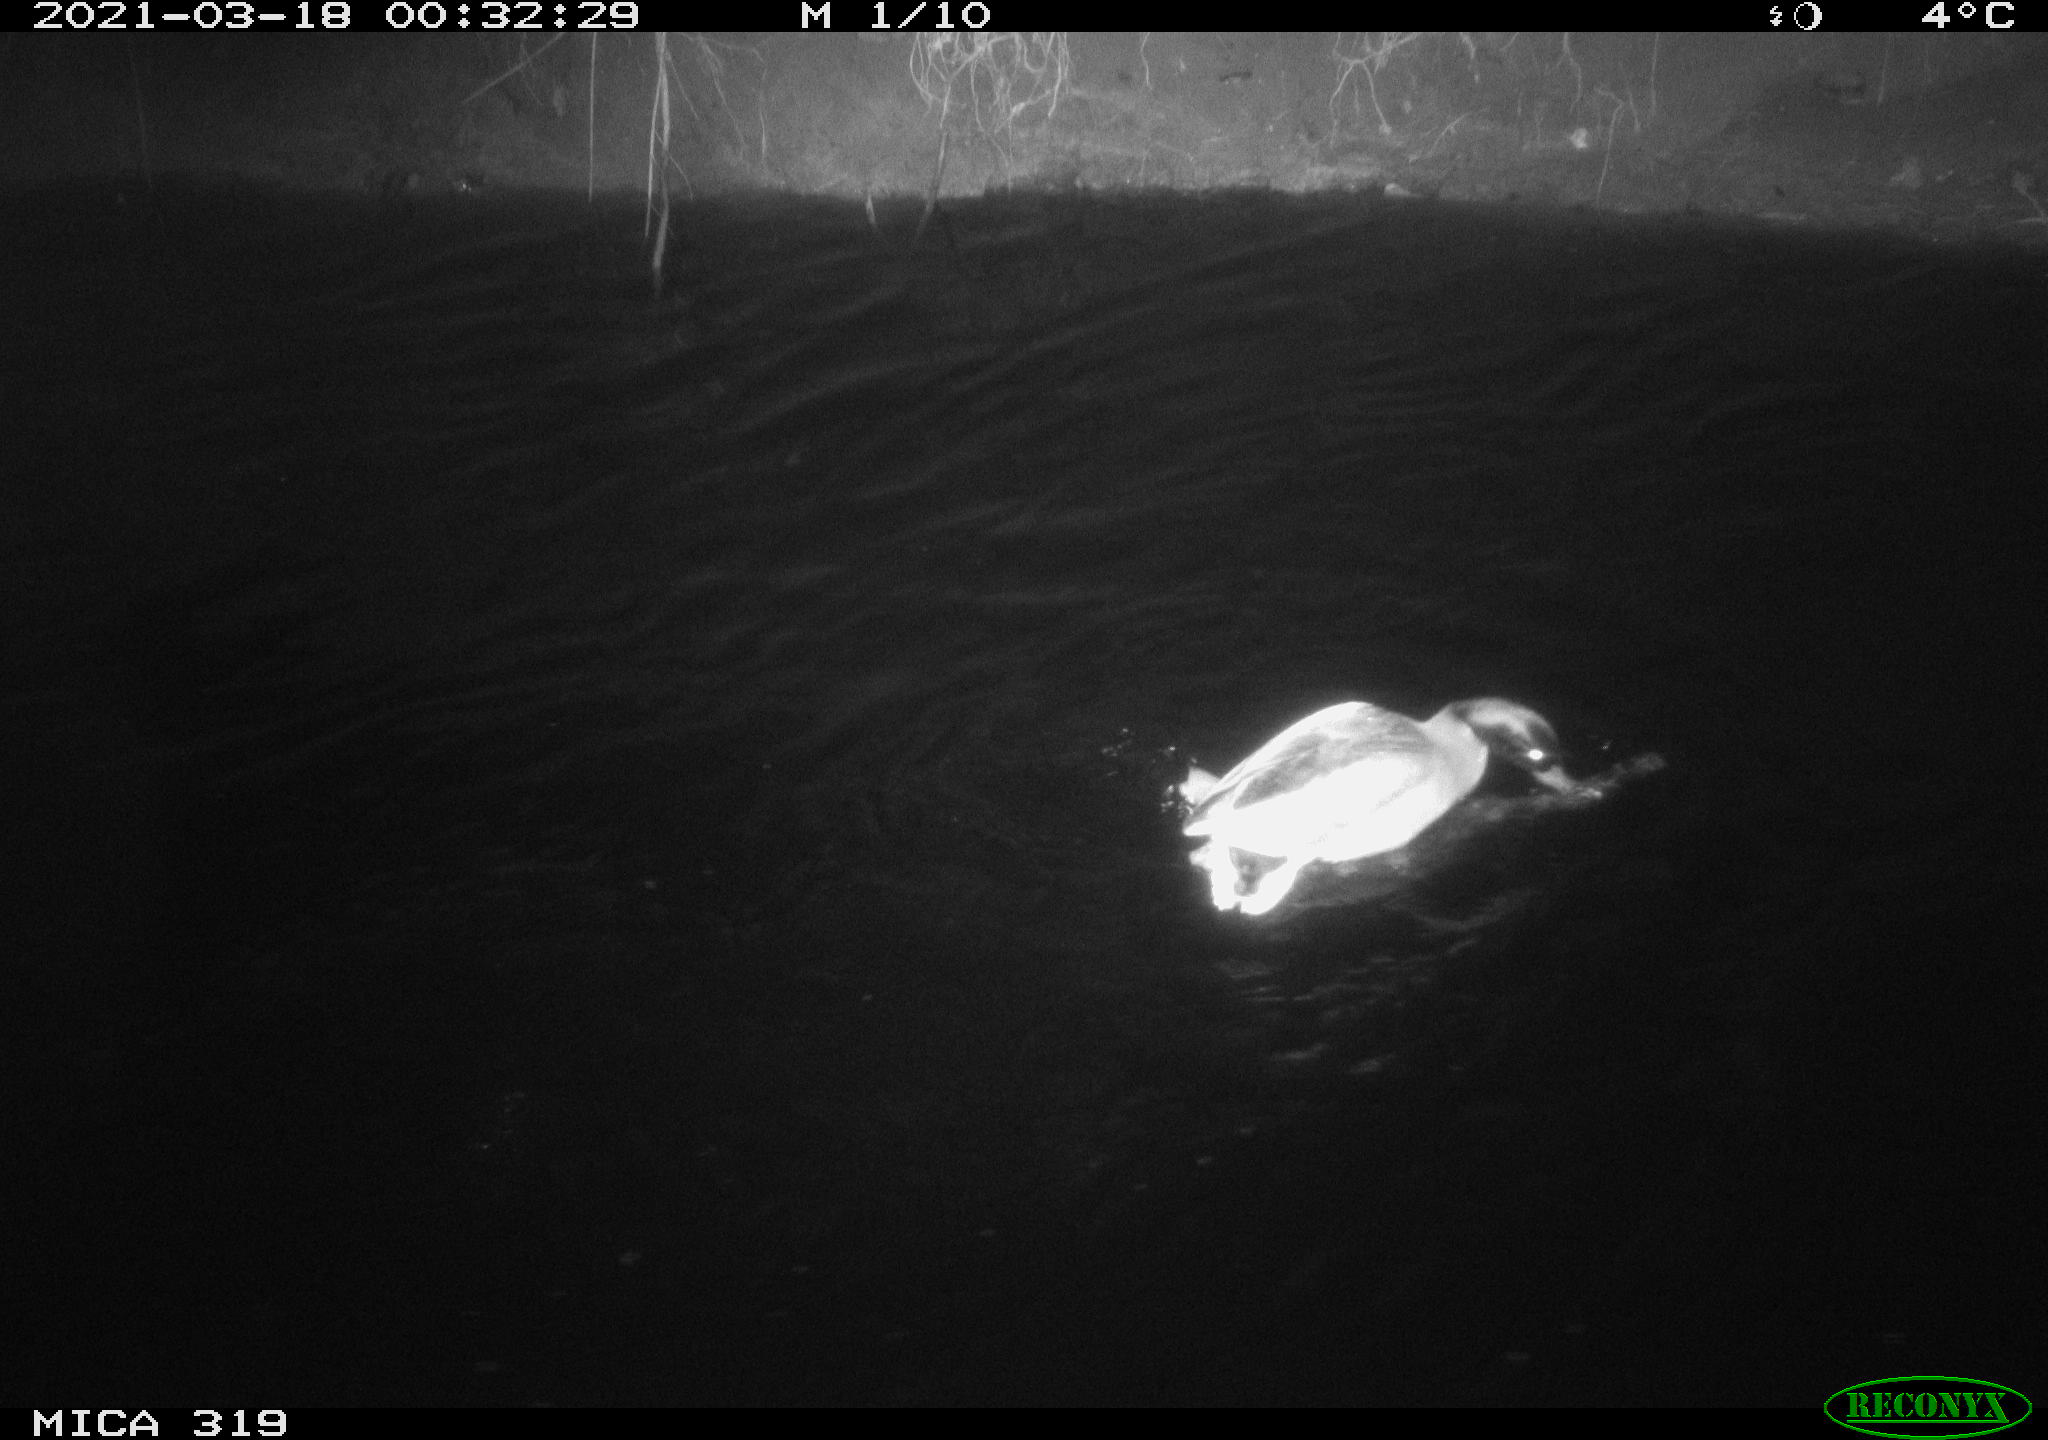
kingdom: Animalia
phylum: Chordata
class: Aves
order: Anseriformes
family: Anatidae
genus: Anas
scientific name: Anas platyrhynchos
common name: Mallard
